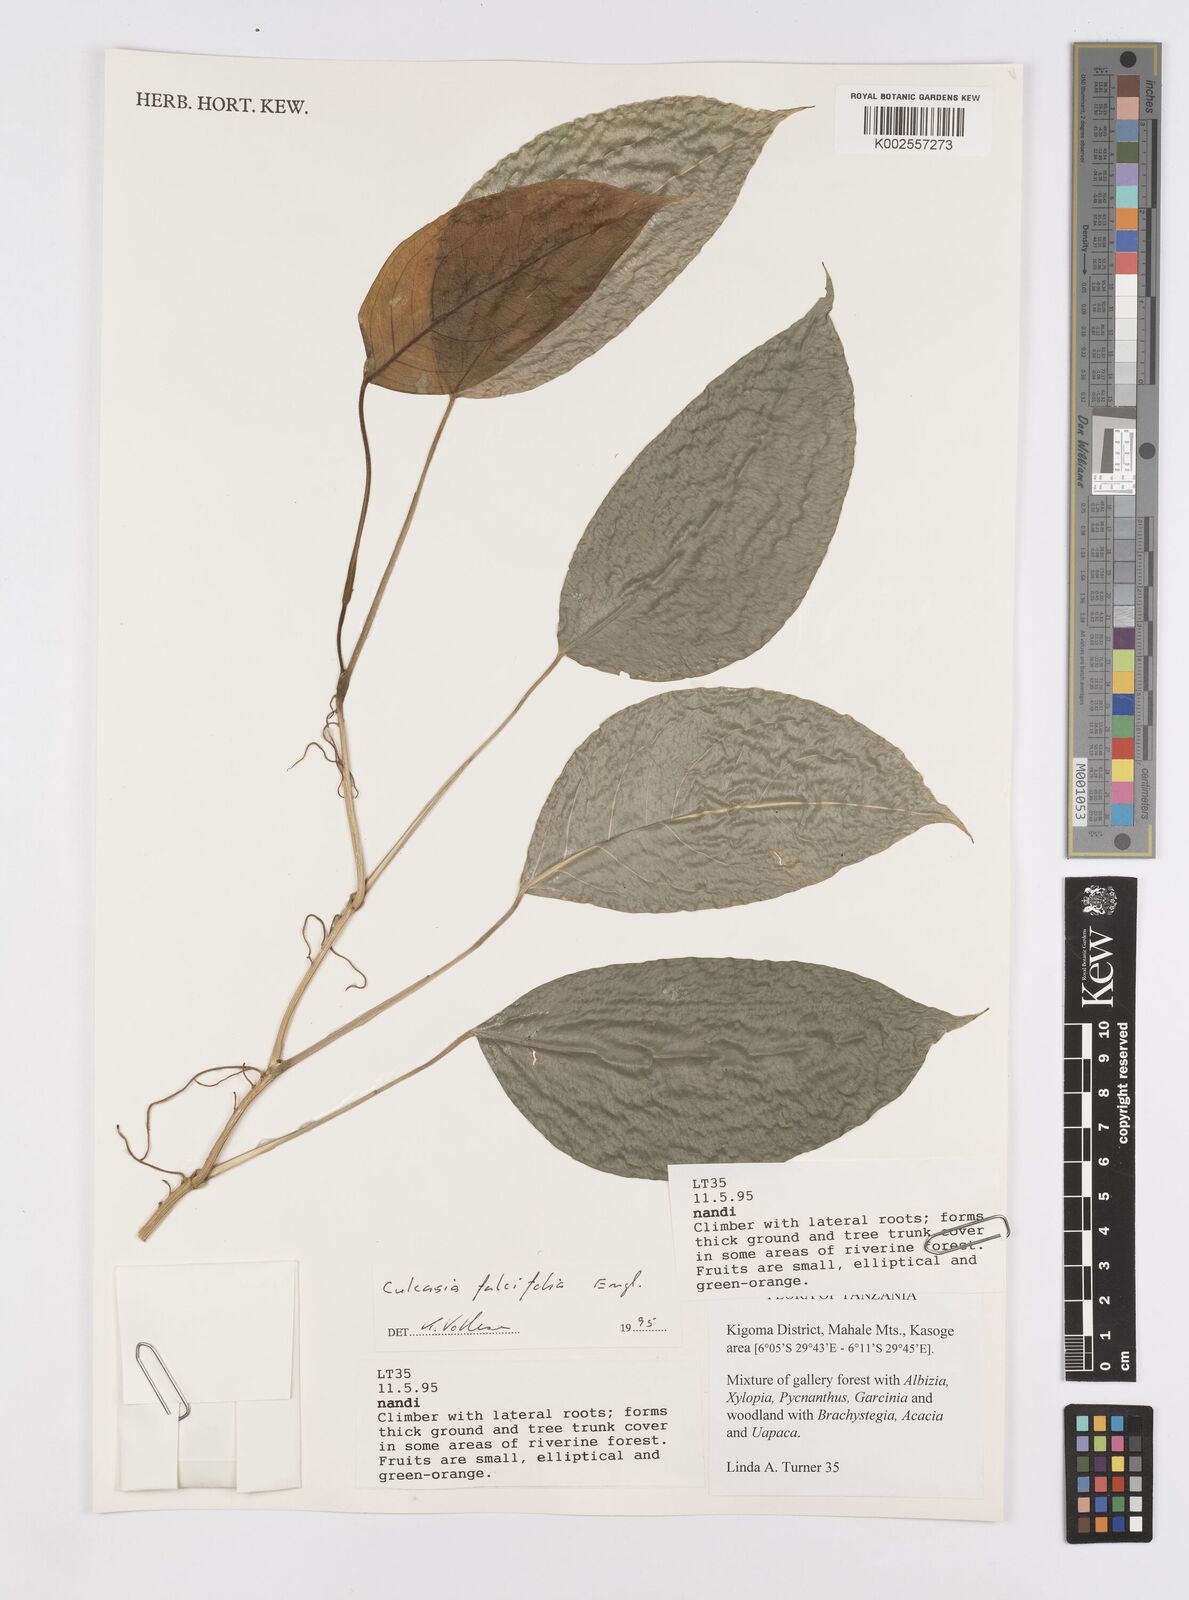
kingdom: Plantae
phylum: Tracheophyta
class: Liliopsida
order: Alismatales
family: Araceae
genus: Culcasia
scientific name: Culcasia falcifolia
